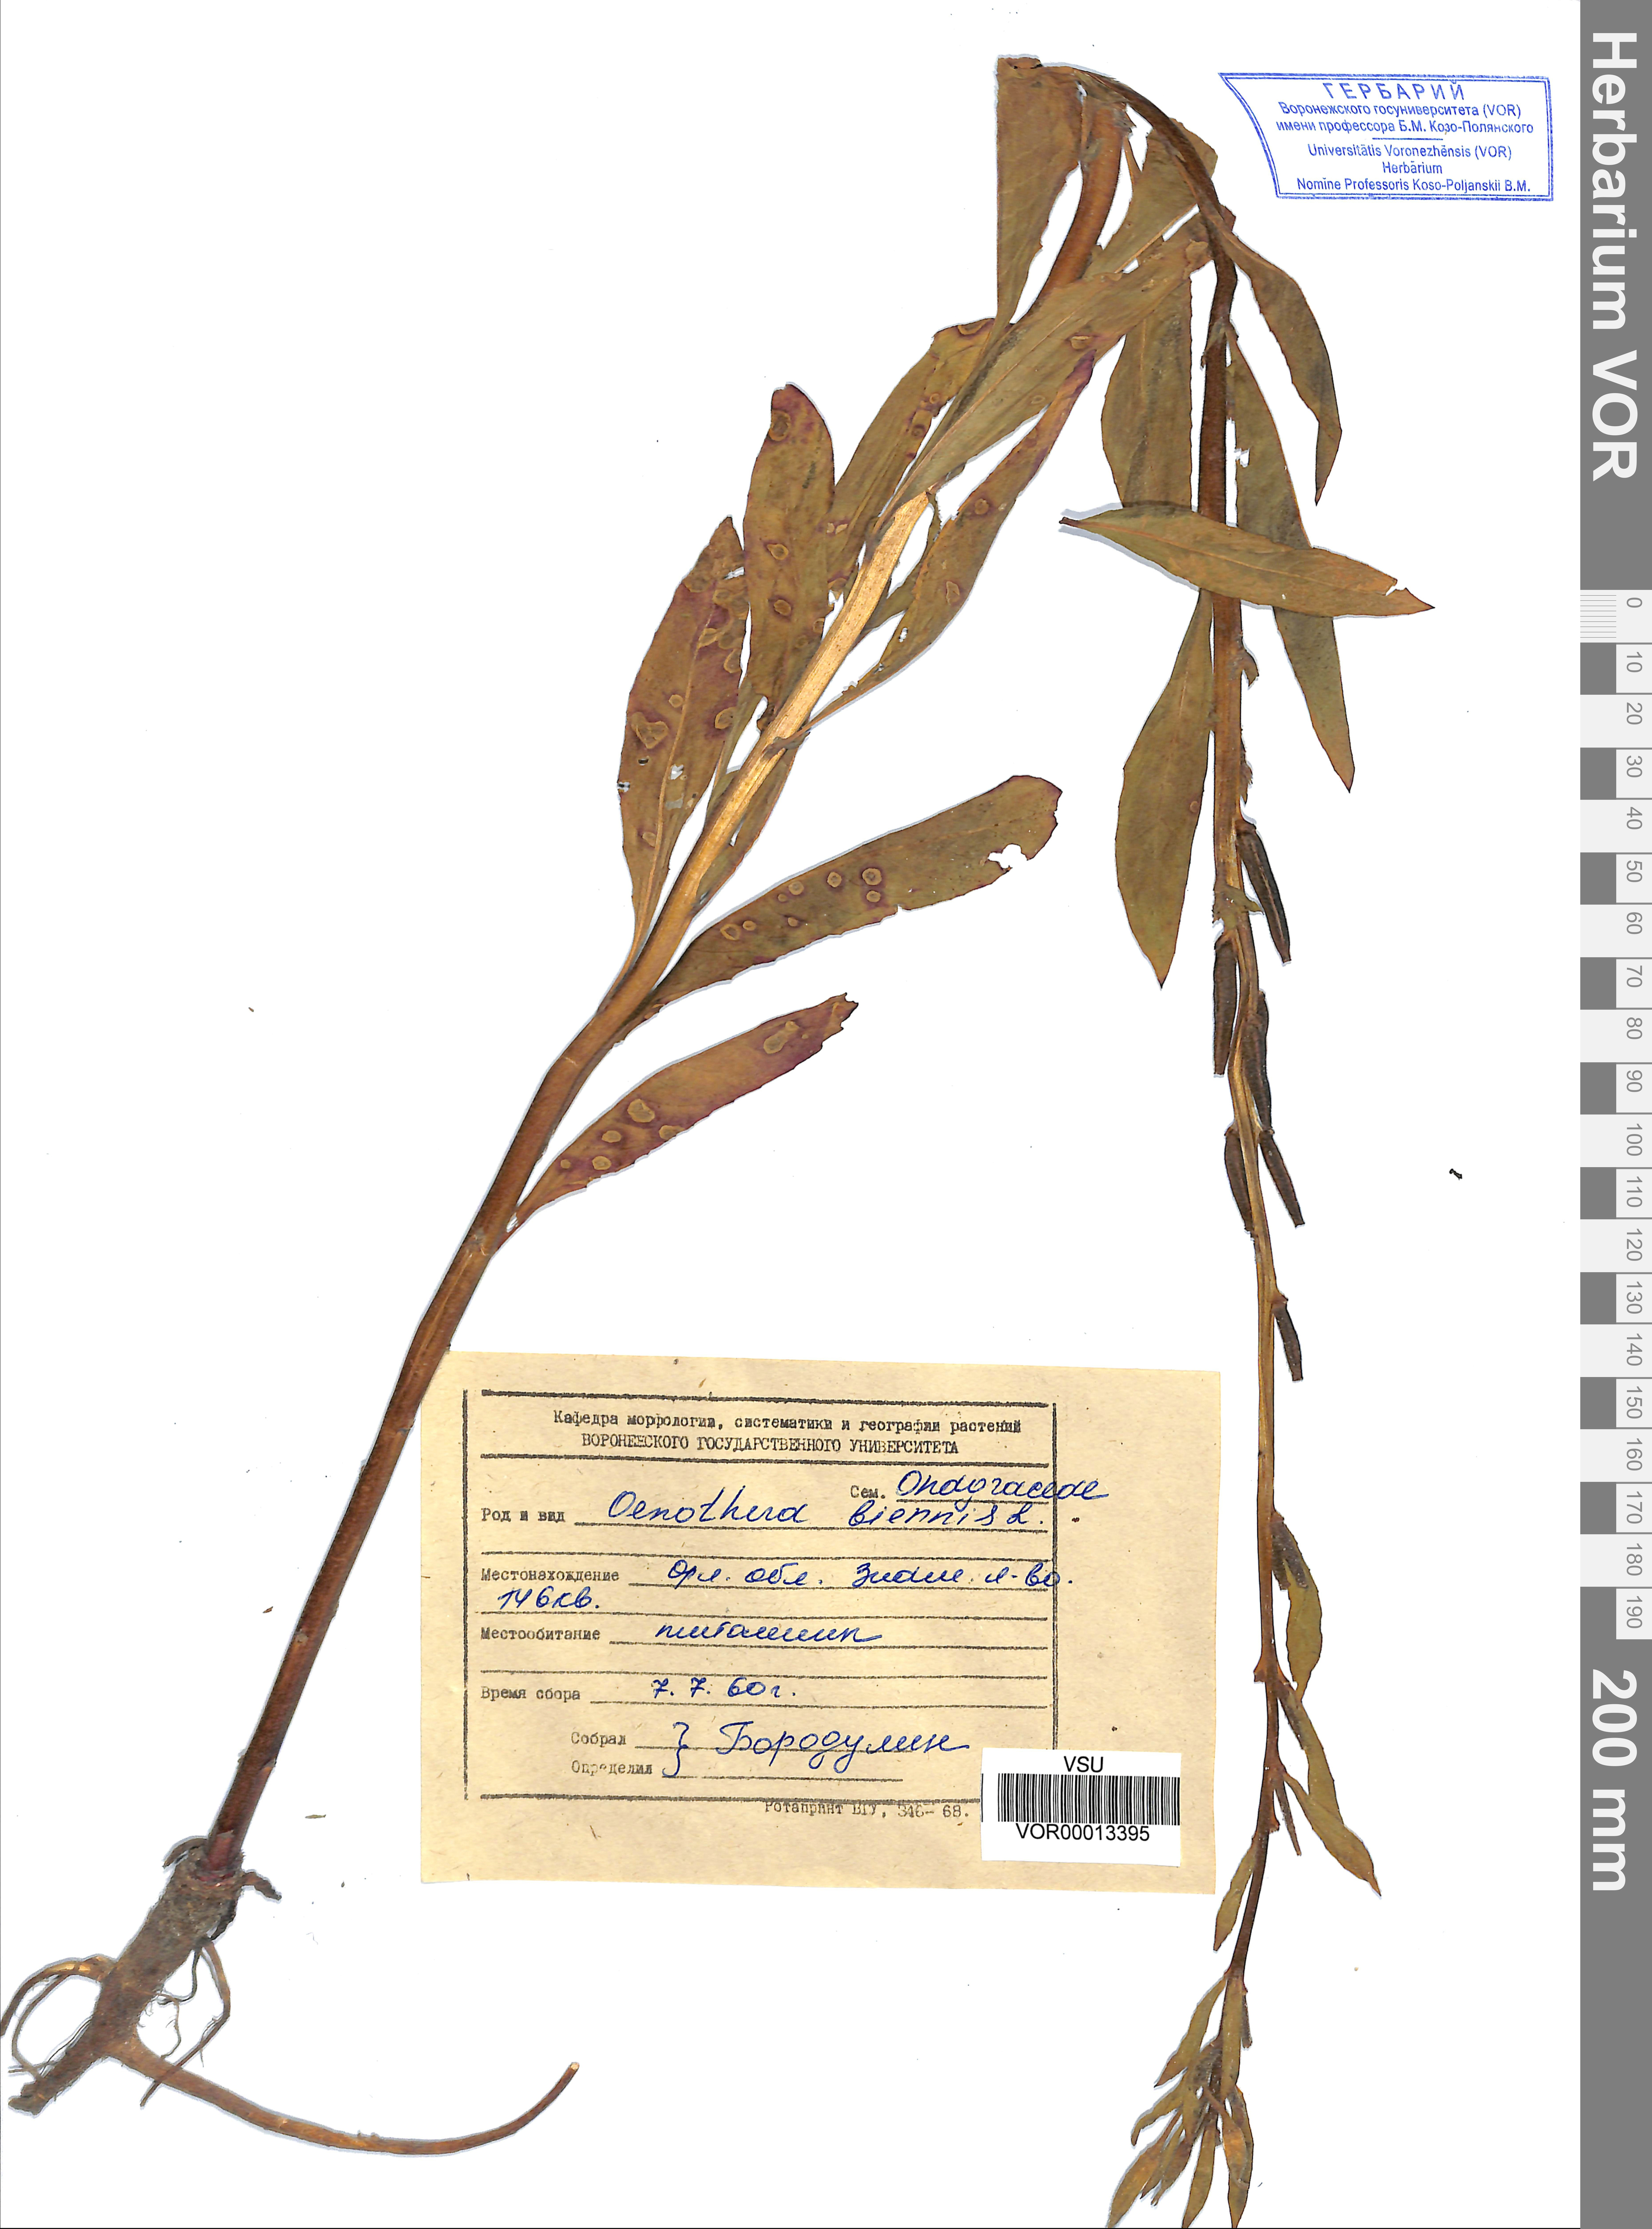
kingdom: Plantae
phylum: Tracheophyta
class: Magnoliopsida
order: Myrtales
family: Onagraceae
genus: Oenothera
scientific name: Oenothera biennis
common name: Common evening-primrose
